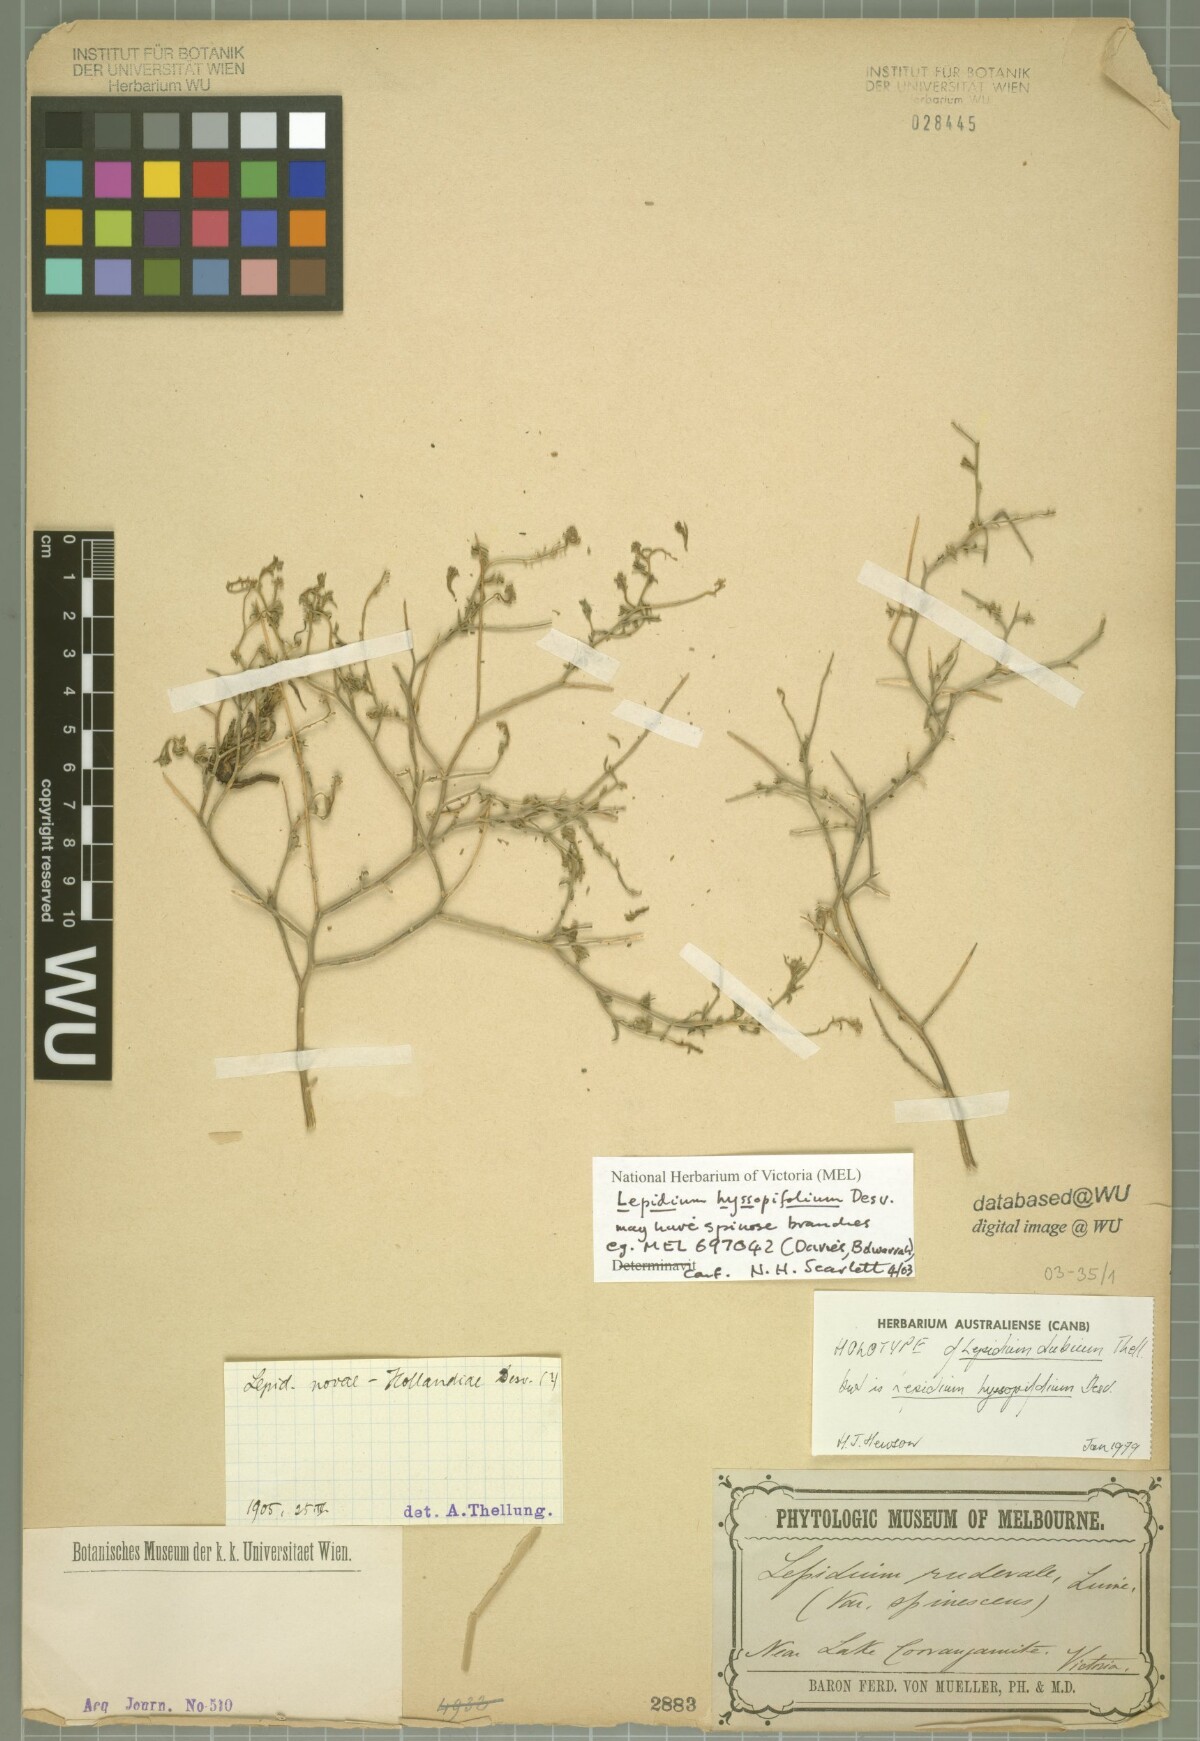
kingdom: Plantae
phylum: Tracheophyta
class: Magnoliopsida
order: Brassicales
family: Brassicaceae
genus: Lepidium
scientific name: Lepidium africanum
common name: African pepperwort
